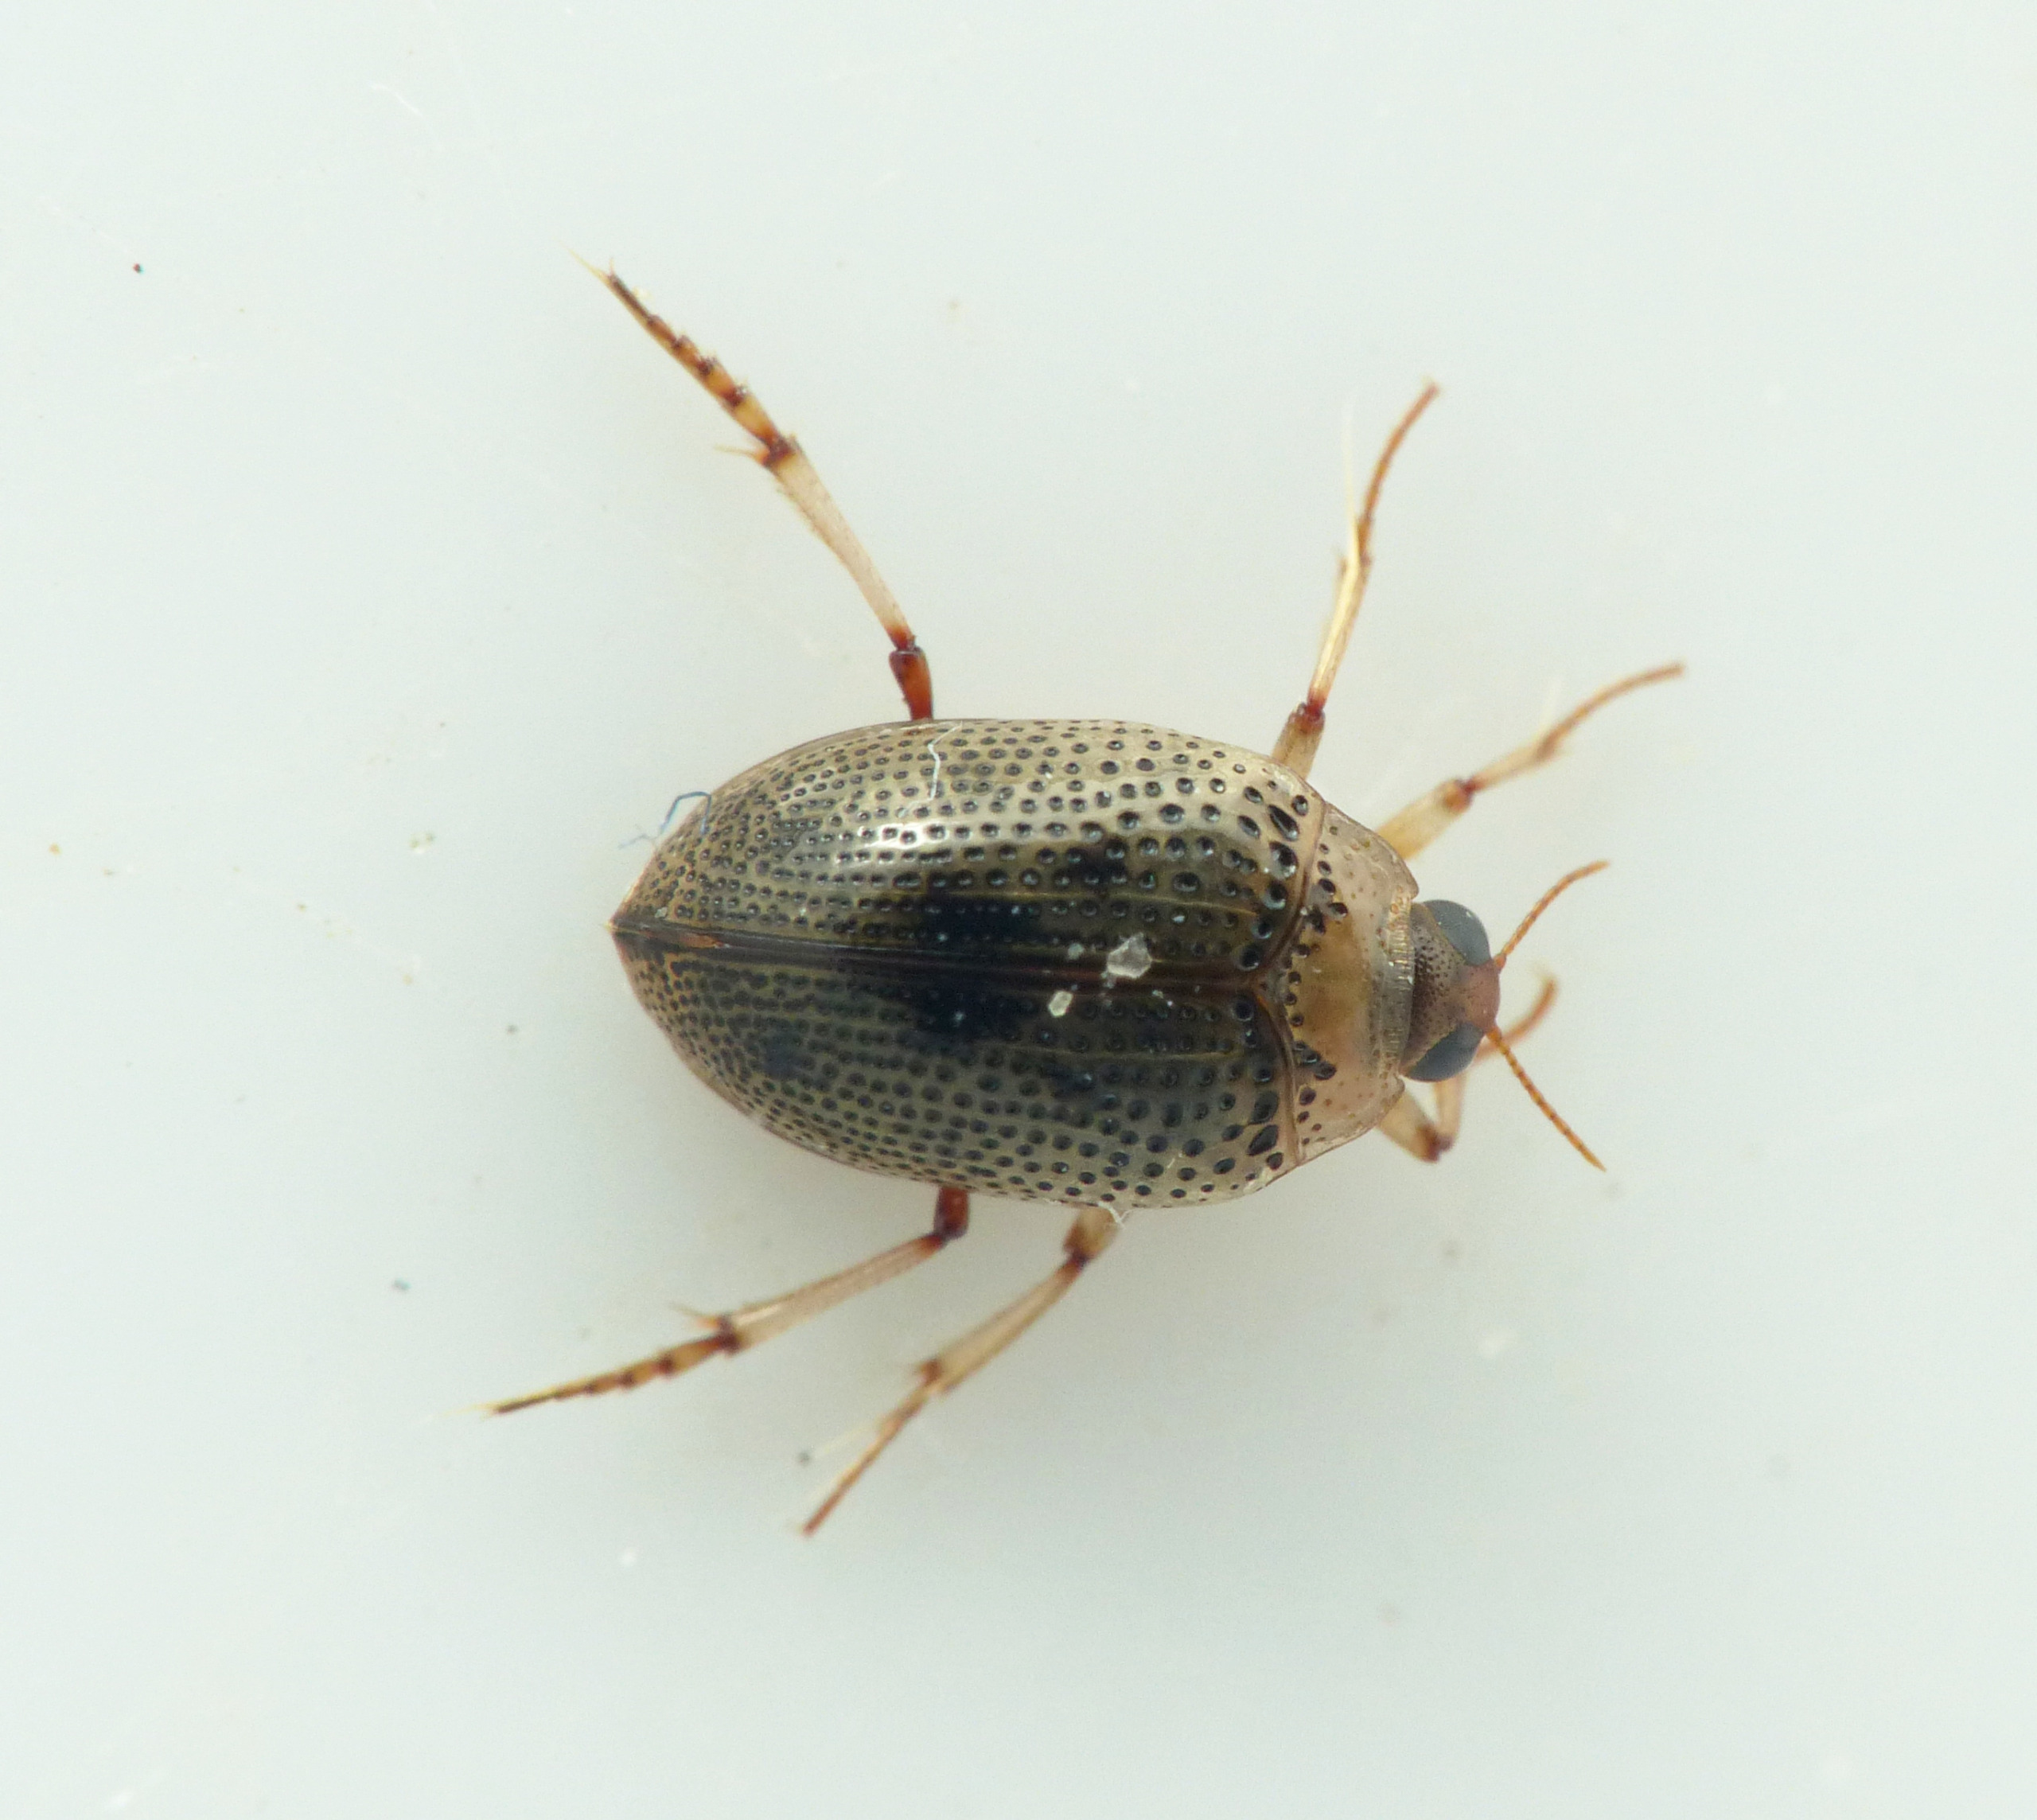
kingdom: Animalia
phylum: Arthropoda
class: Insecta
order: Coleoptera
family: Haliplidae
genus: Peltodytes
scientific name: Peltodytes caesus
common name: Plettet vandtræder
